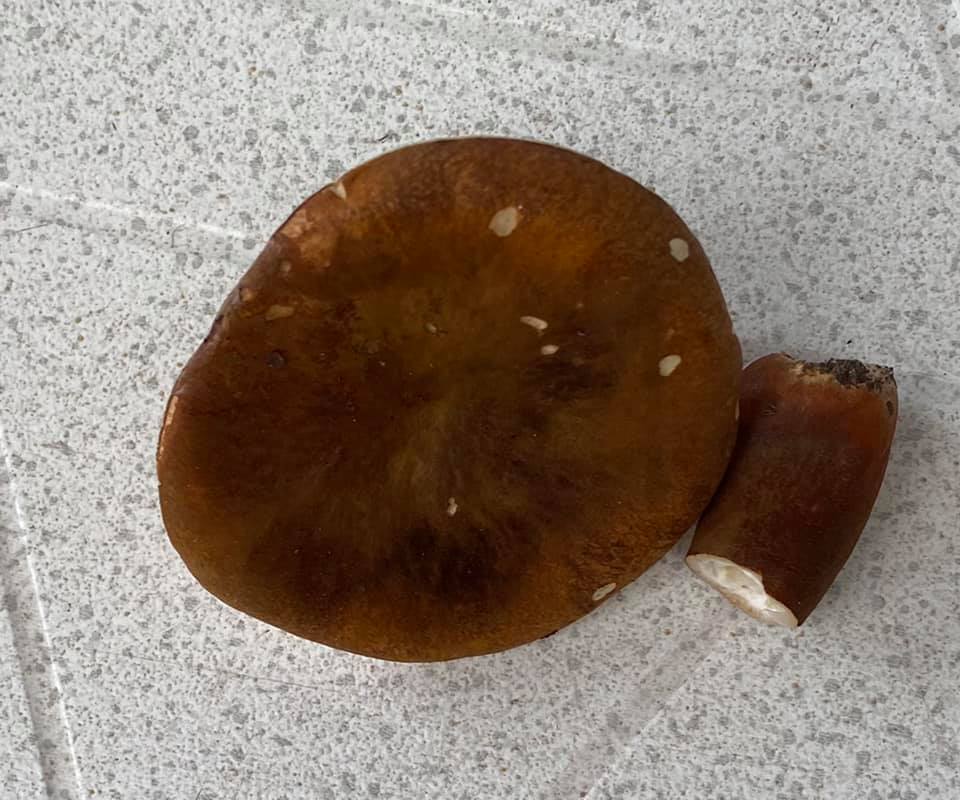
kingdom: Fungi
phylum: Basidiomycota
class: Agaricomycetes
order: Boletales
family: Gyroporaceae
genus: Gyroporus
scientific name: Gyroporus castaneus
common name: kastanie-kammerrørhat
